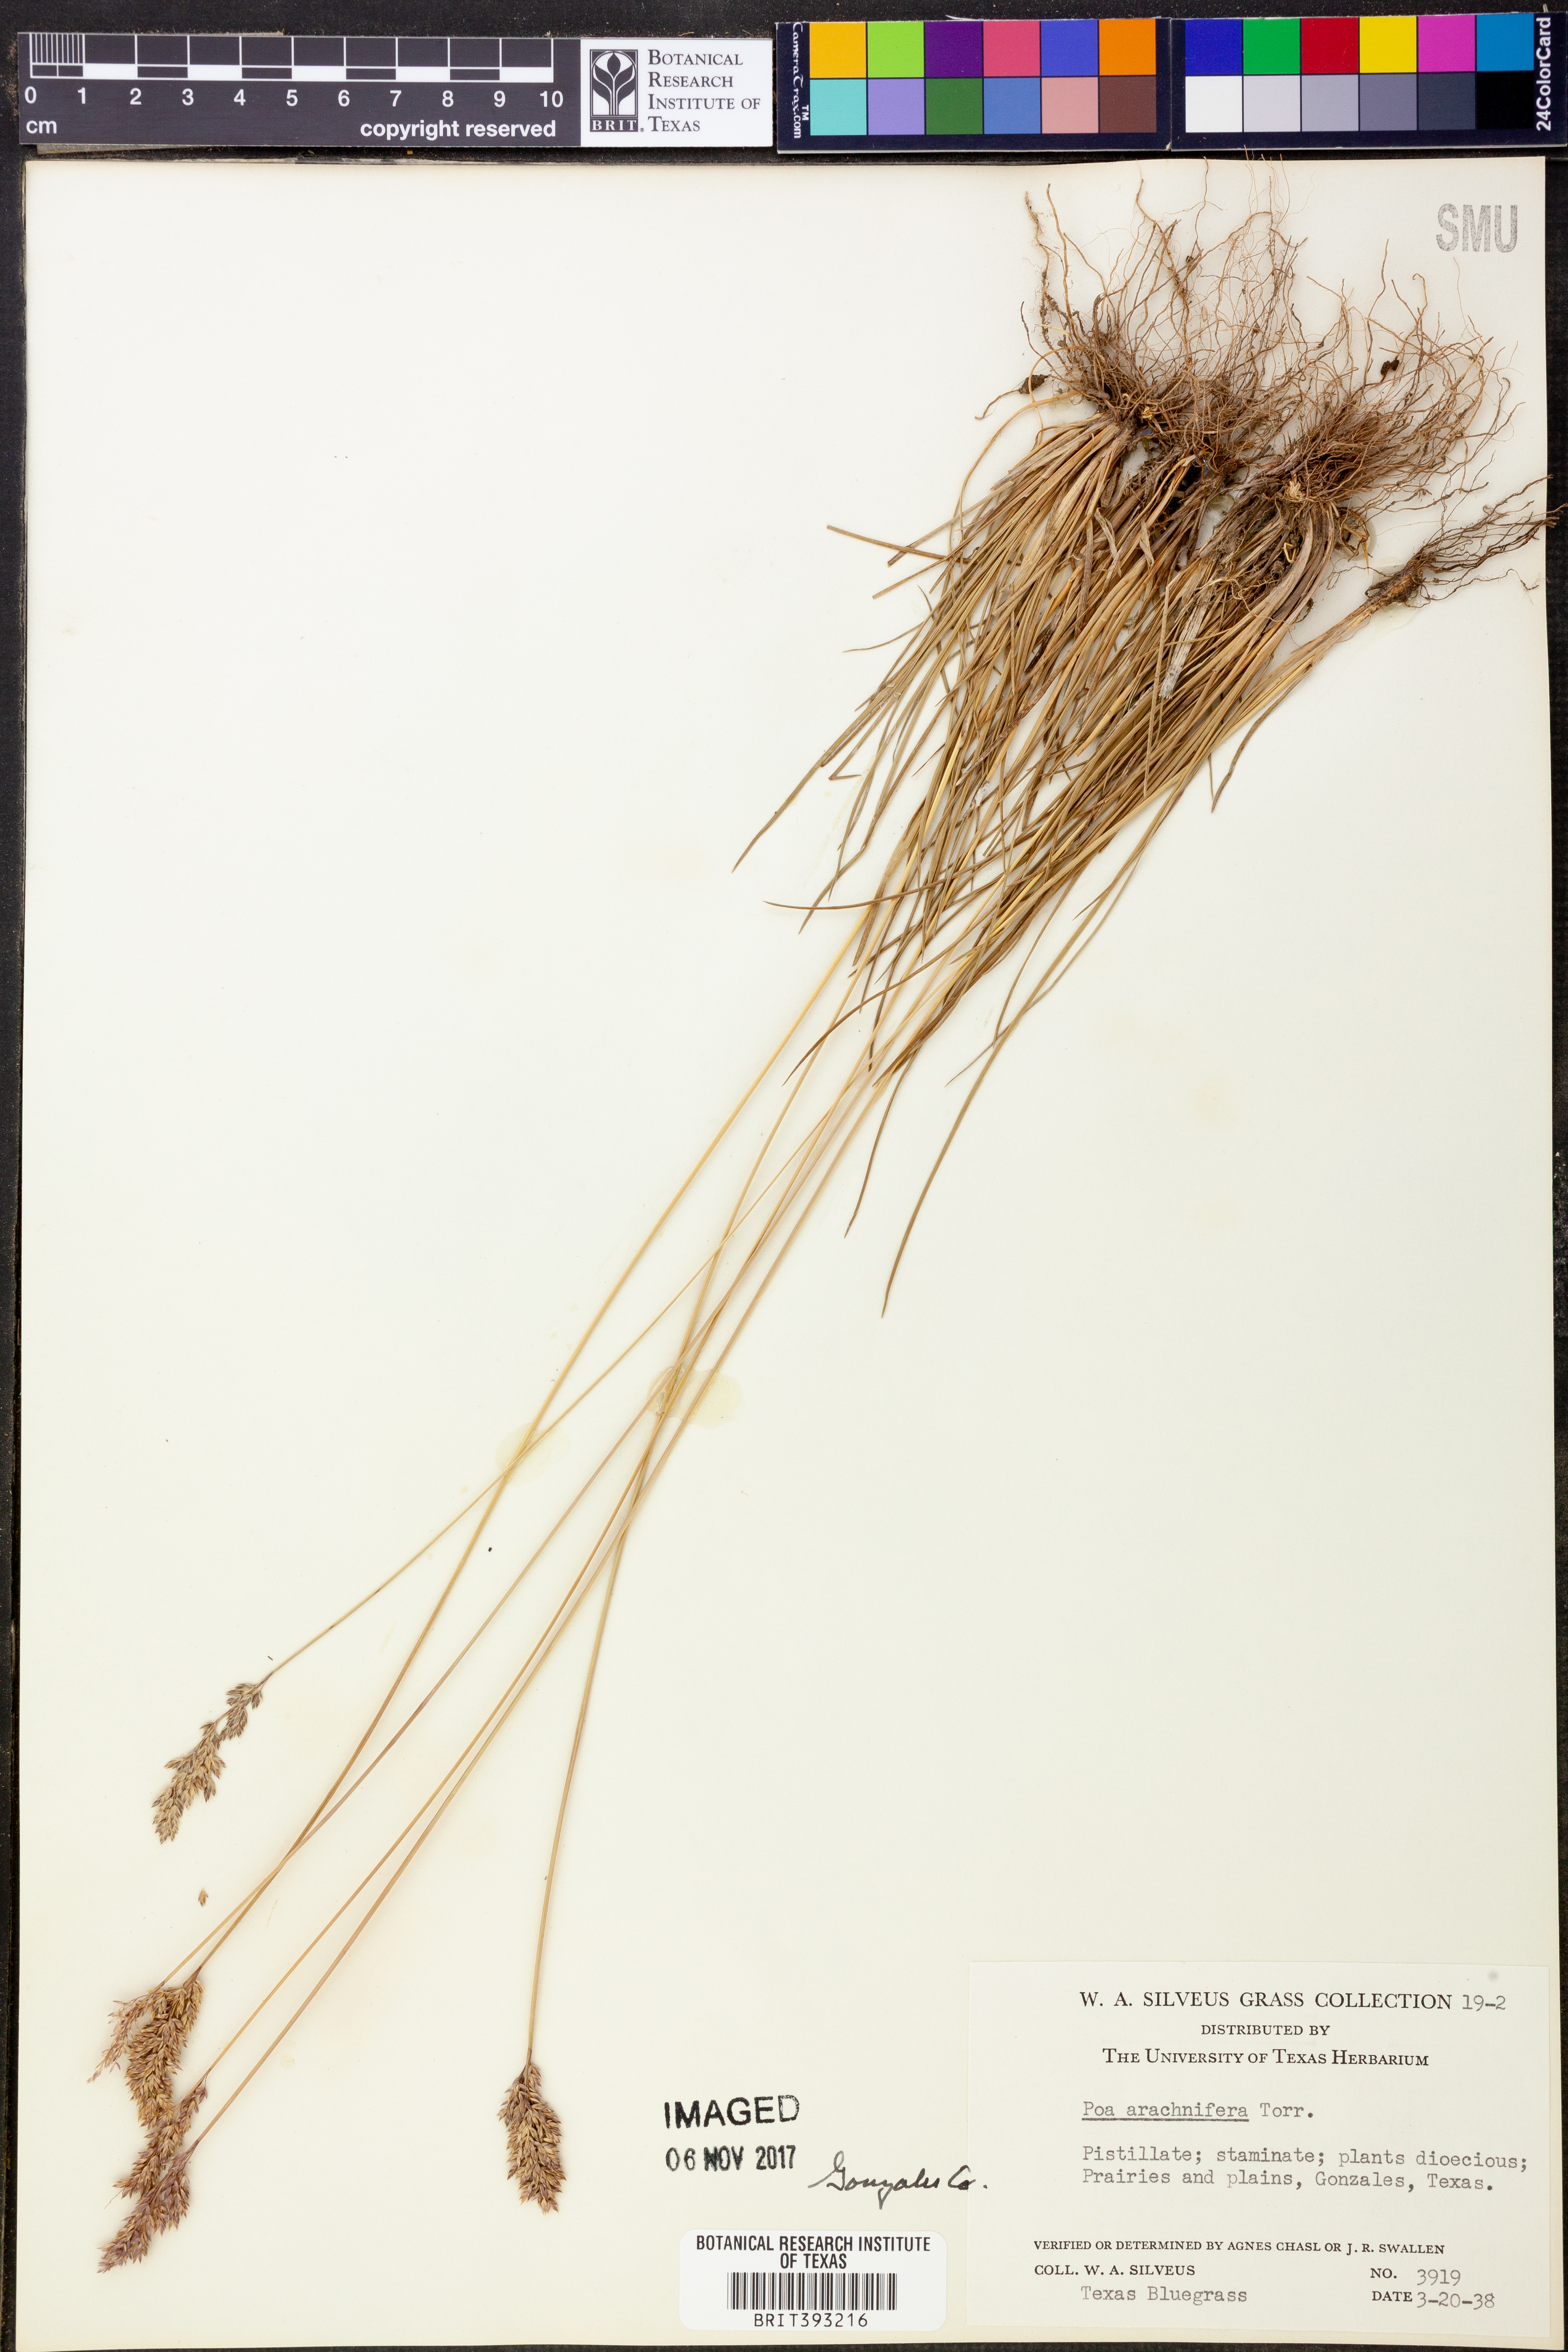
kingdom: Plantae
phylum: Tracheophyta
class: Liliopsida
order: Poales
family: Poaceae
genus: Poa
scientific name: Poa arachnifera
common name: Texas bluegrass
